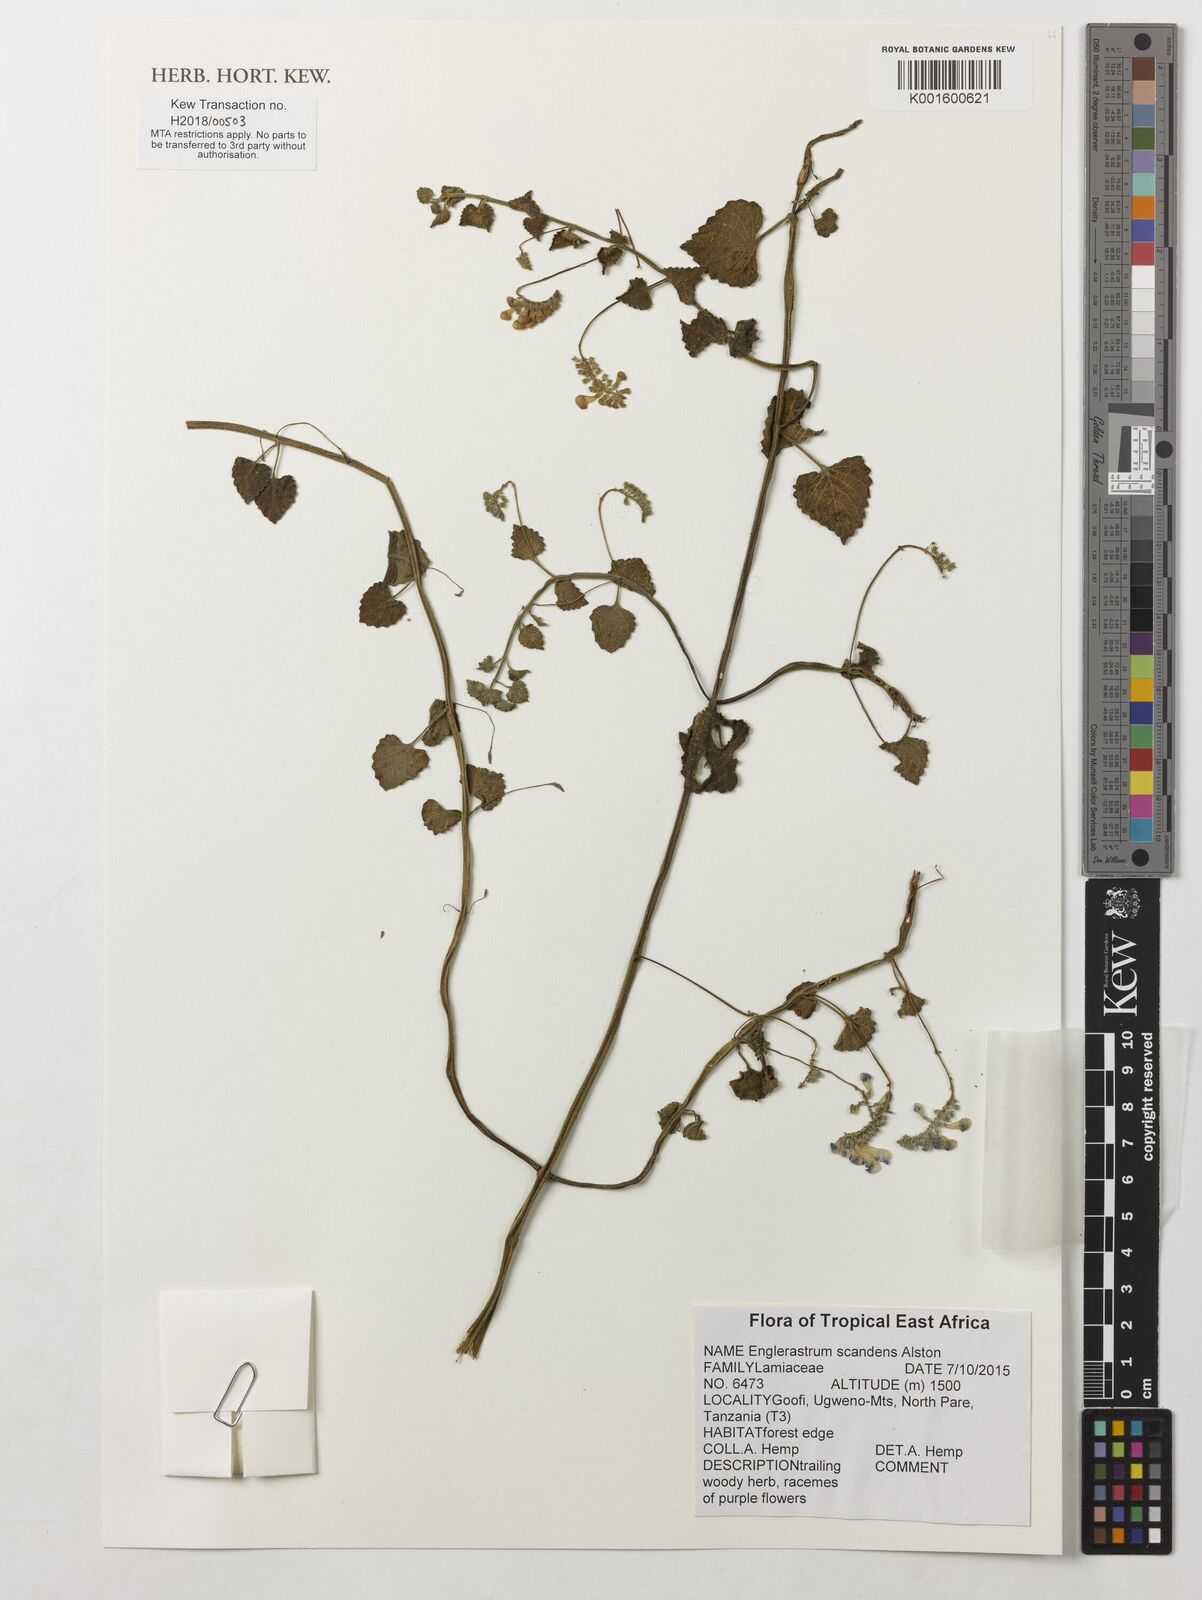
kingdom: Plantae
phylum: Tracheophyta
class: Magnoliopsida
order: Lamiales
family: Lamiaceae
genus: Coleus
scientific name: Coleus scandens
